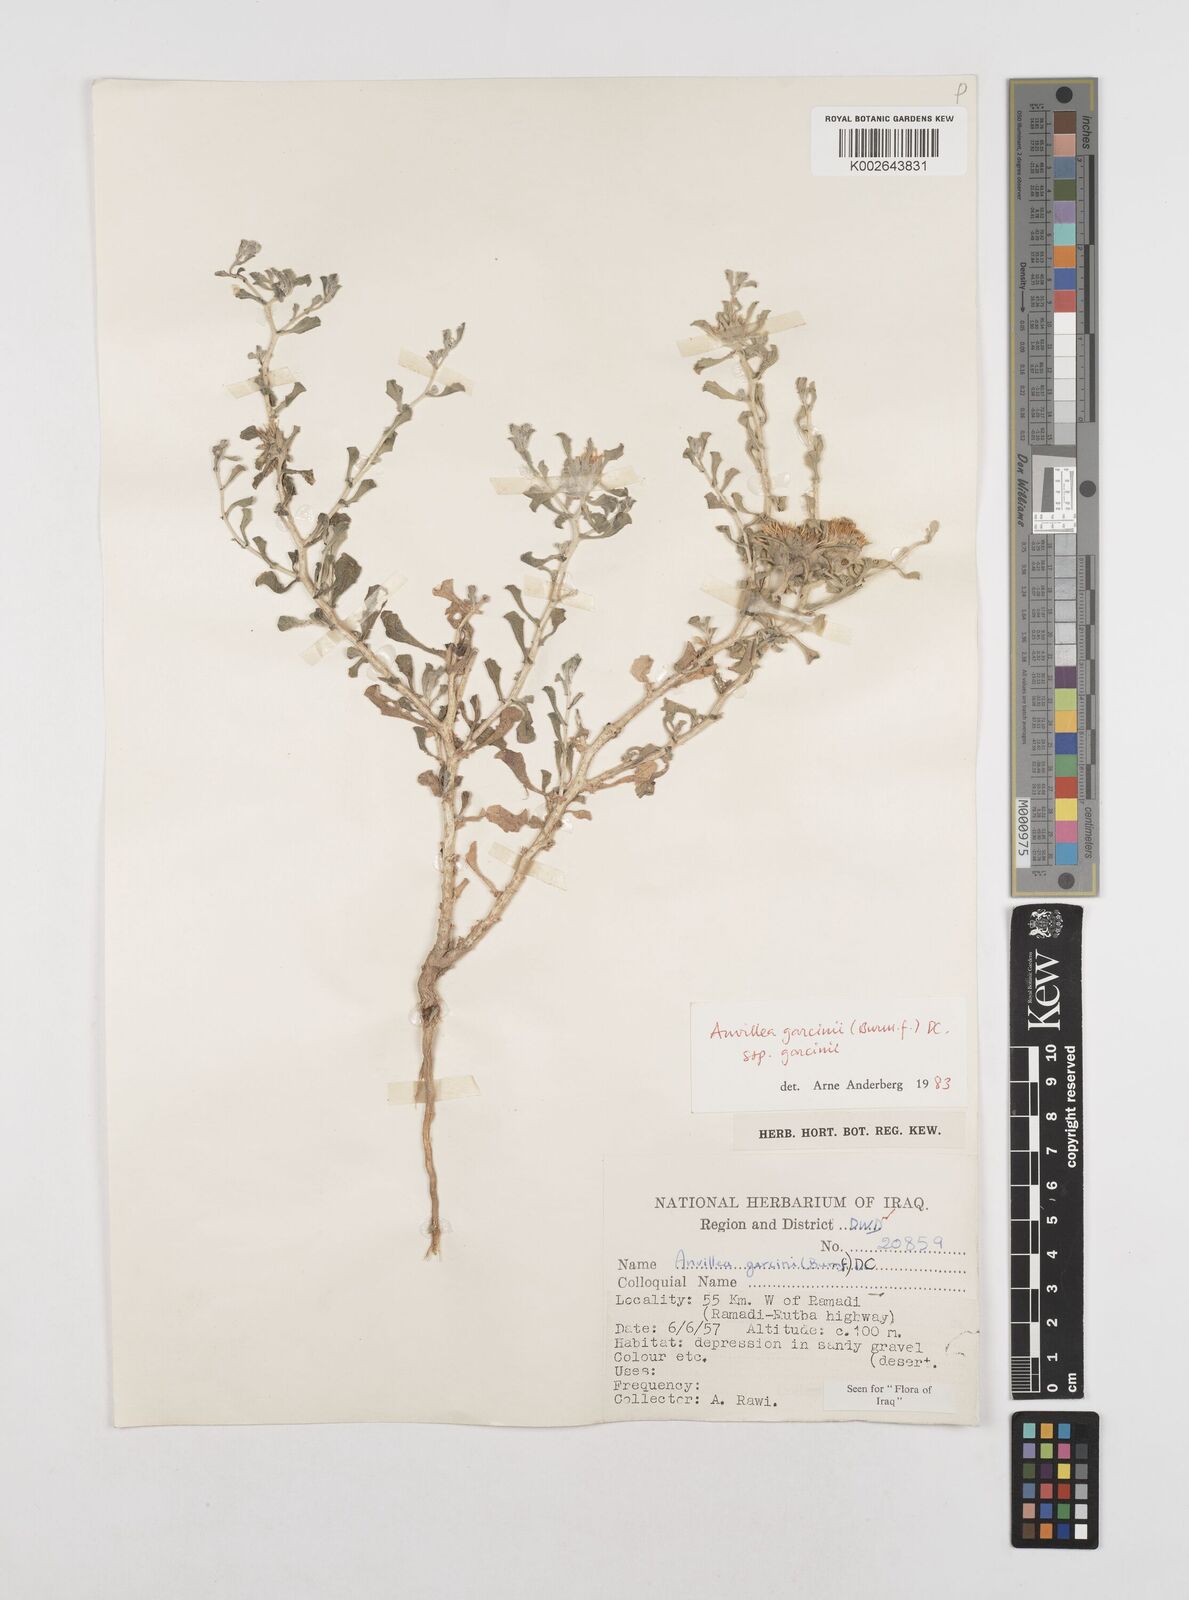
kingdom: Plantae
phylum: Tracheophyta
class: Magnoliopsida
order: Asterales
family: Asteraceae
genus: Anvillea
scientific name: Anvillea garcinii
